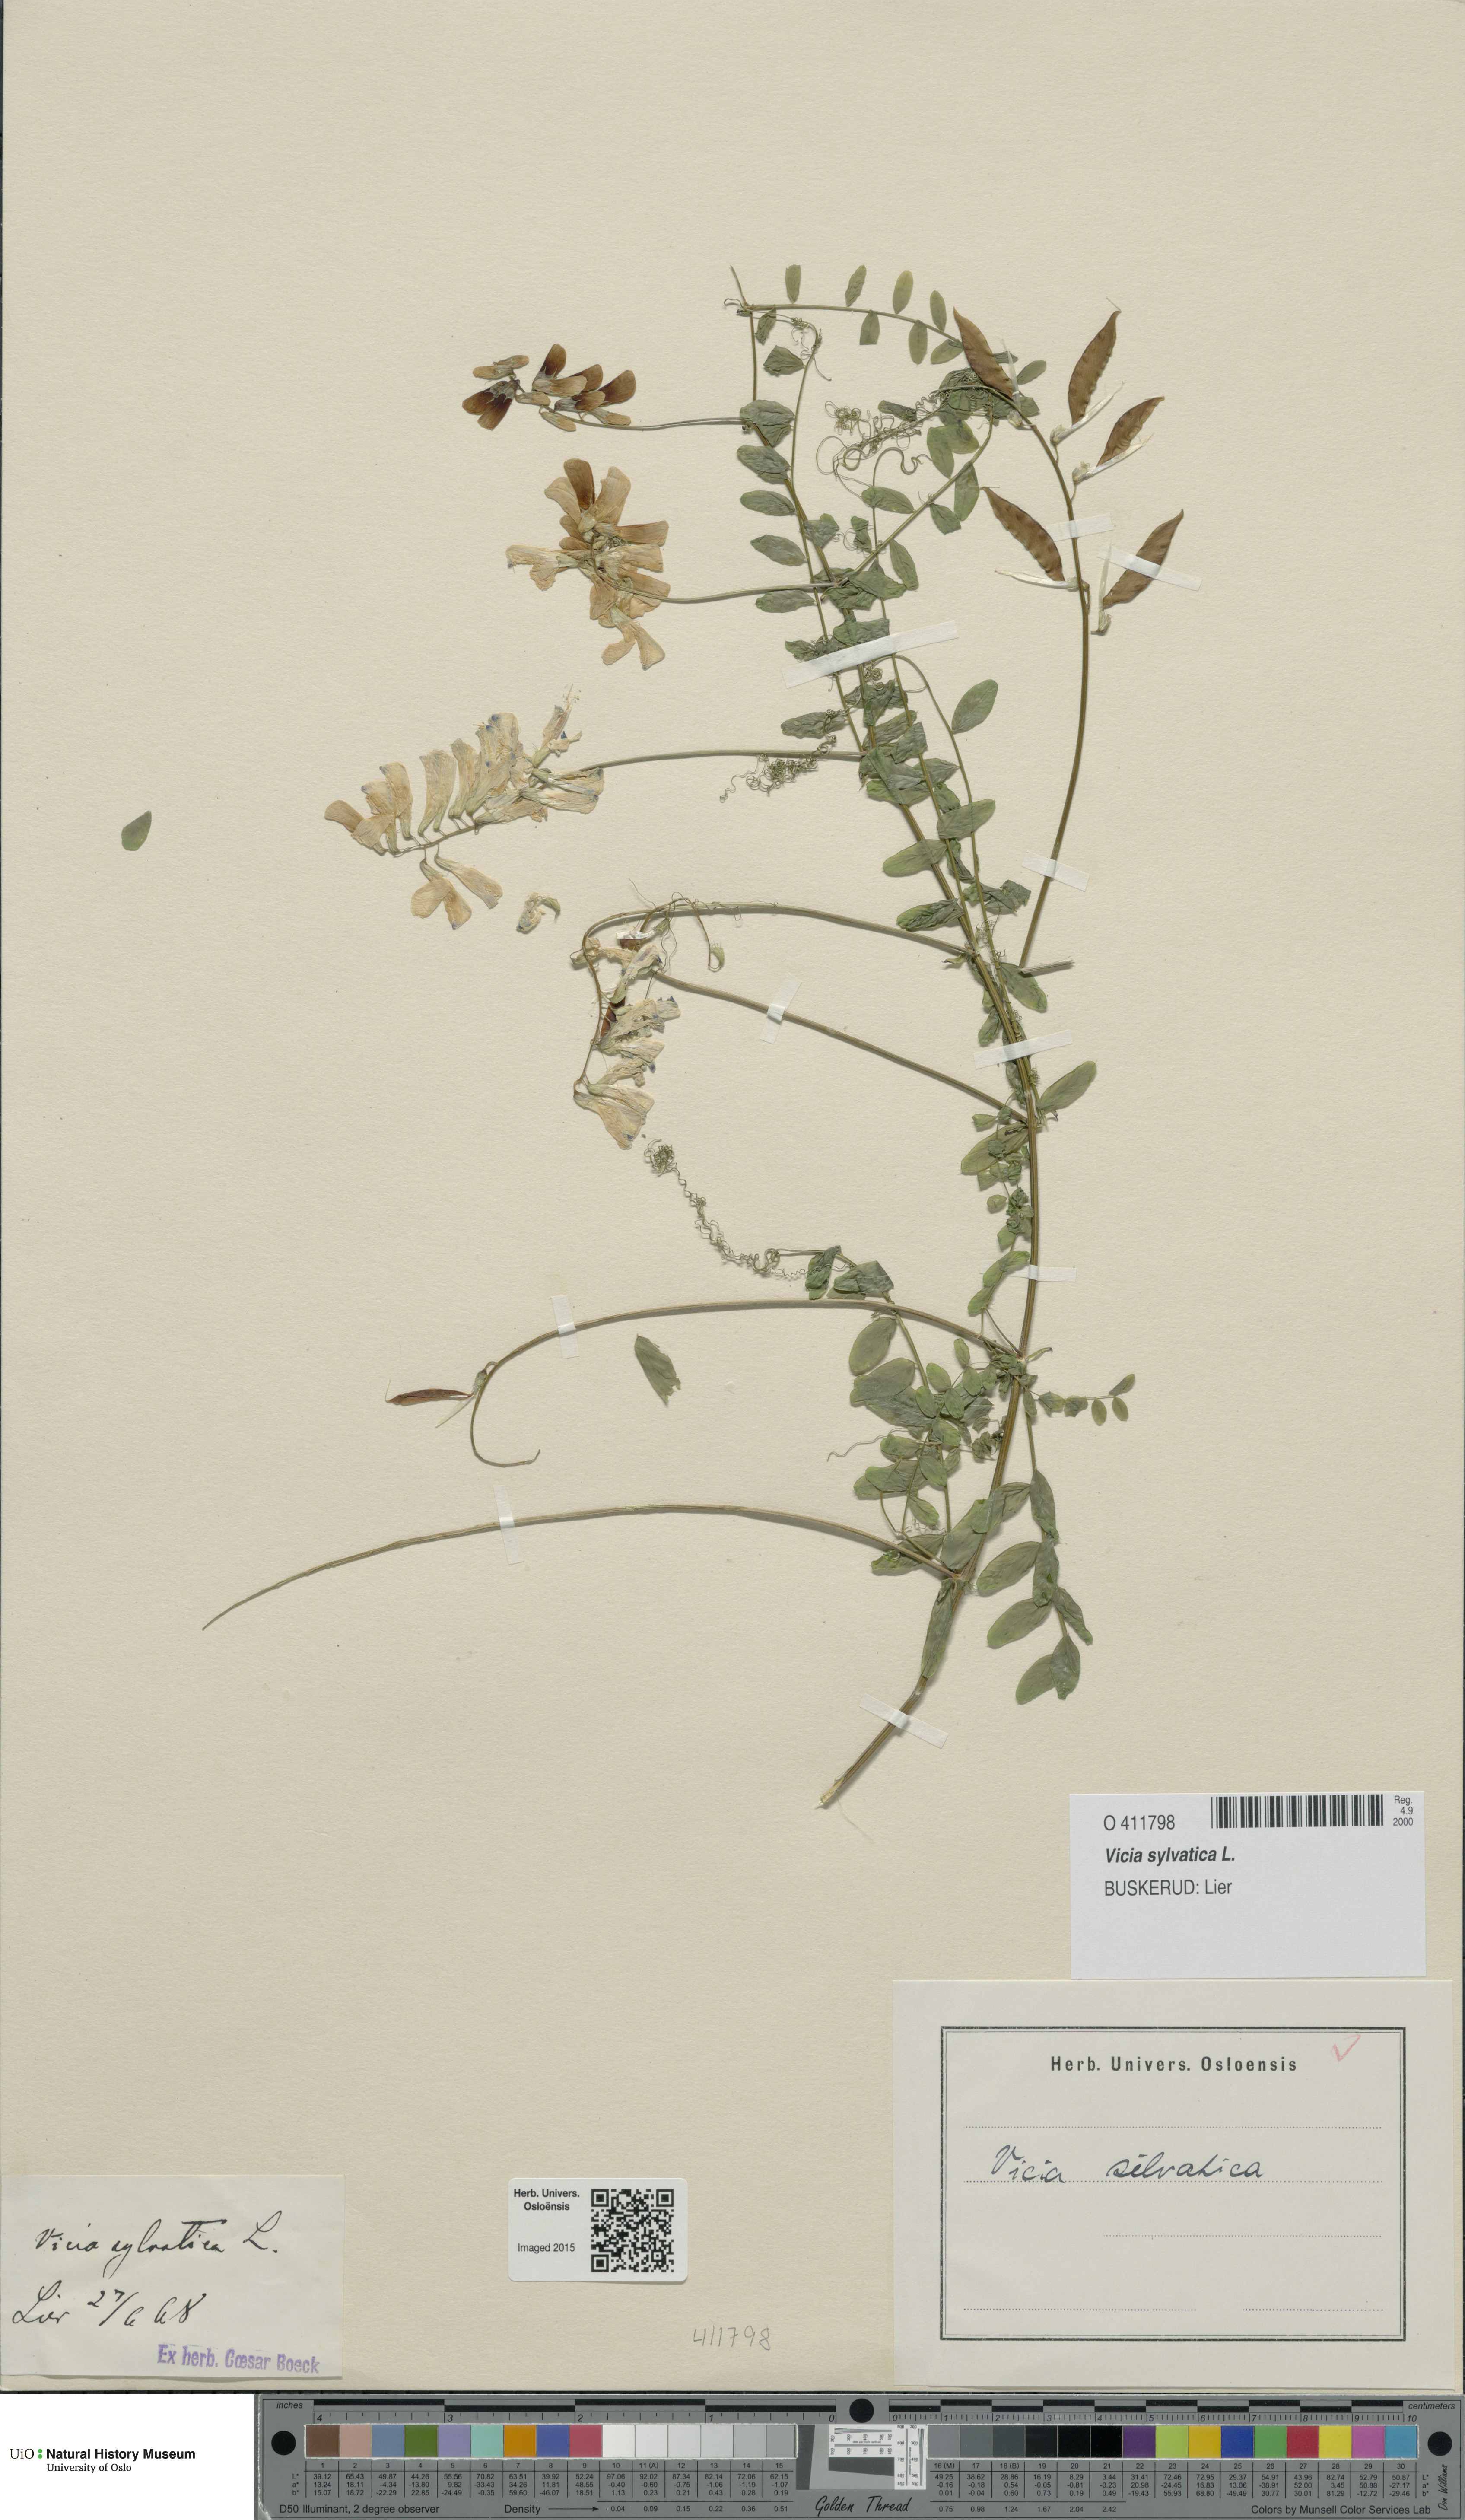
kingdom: Plantae
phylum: Tracheophyta
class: Magnoliopsida
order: Fabales
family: Fabaceae
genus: Vicia
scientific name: Vicia sylvatica
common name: Wood vetch
